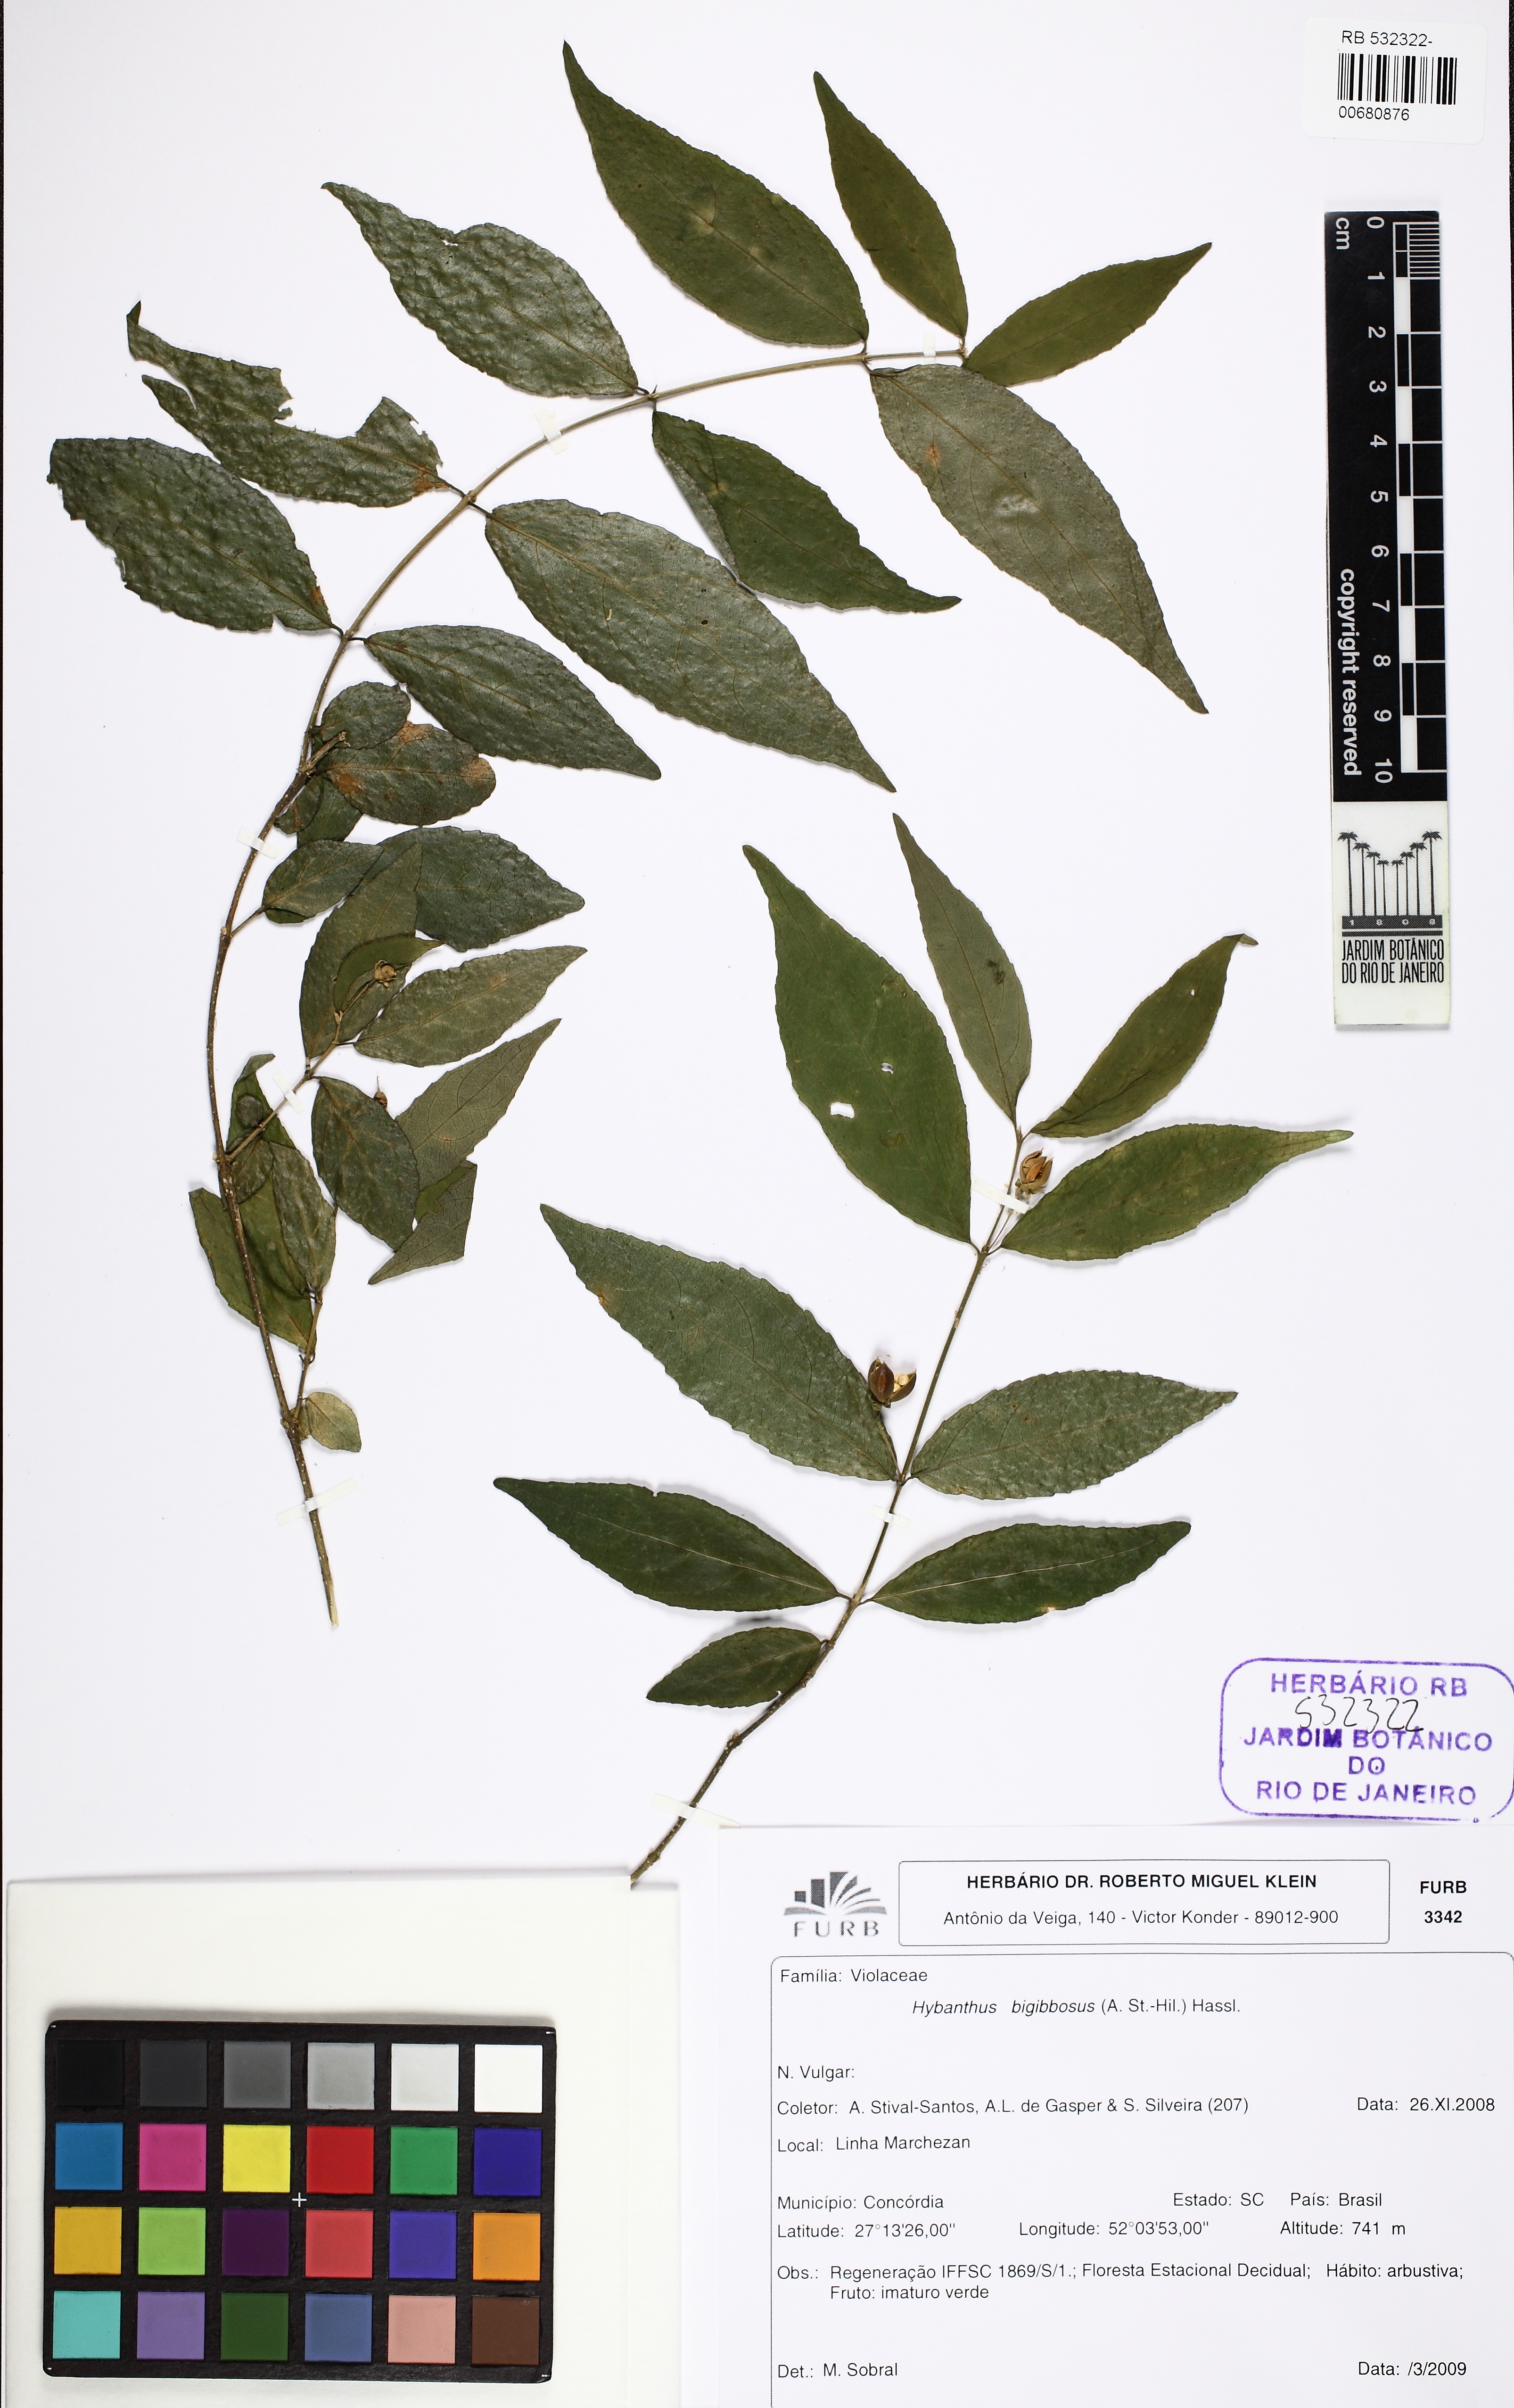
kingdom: Plantae
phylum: Tracheophyta
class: Magnoliopsida
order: Malpighiales
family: Violaceae
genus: Pombalia
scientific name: Pombalia bigibbosa
